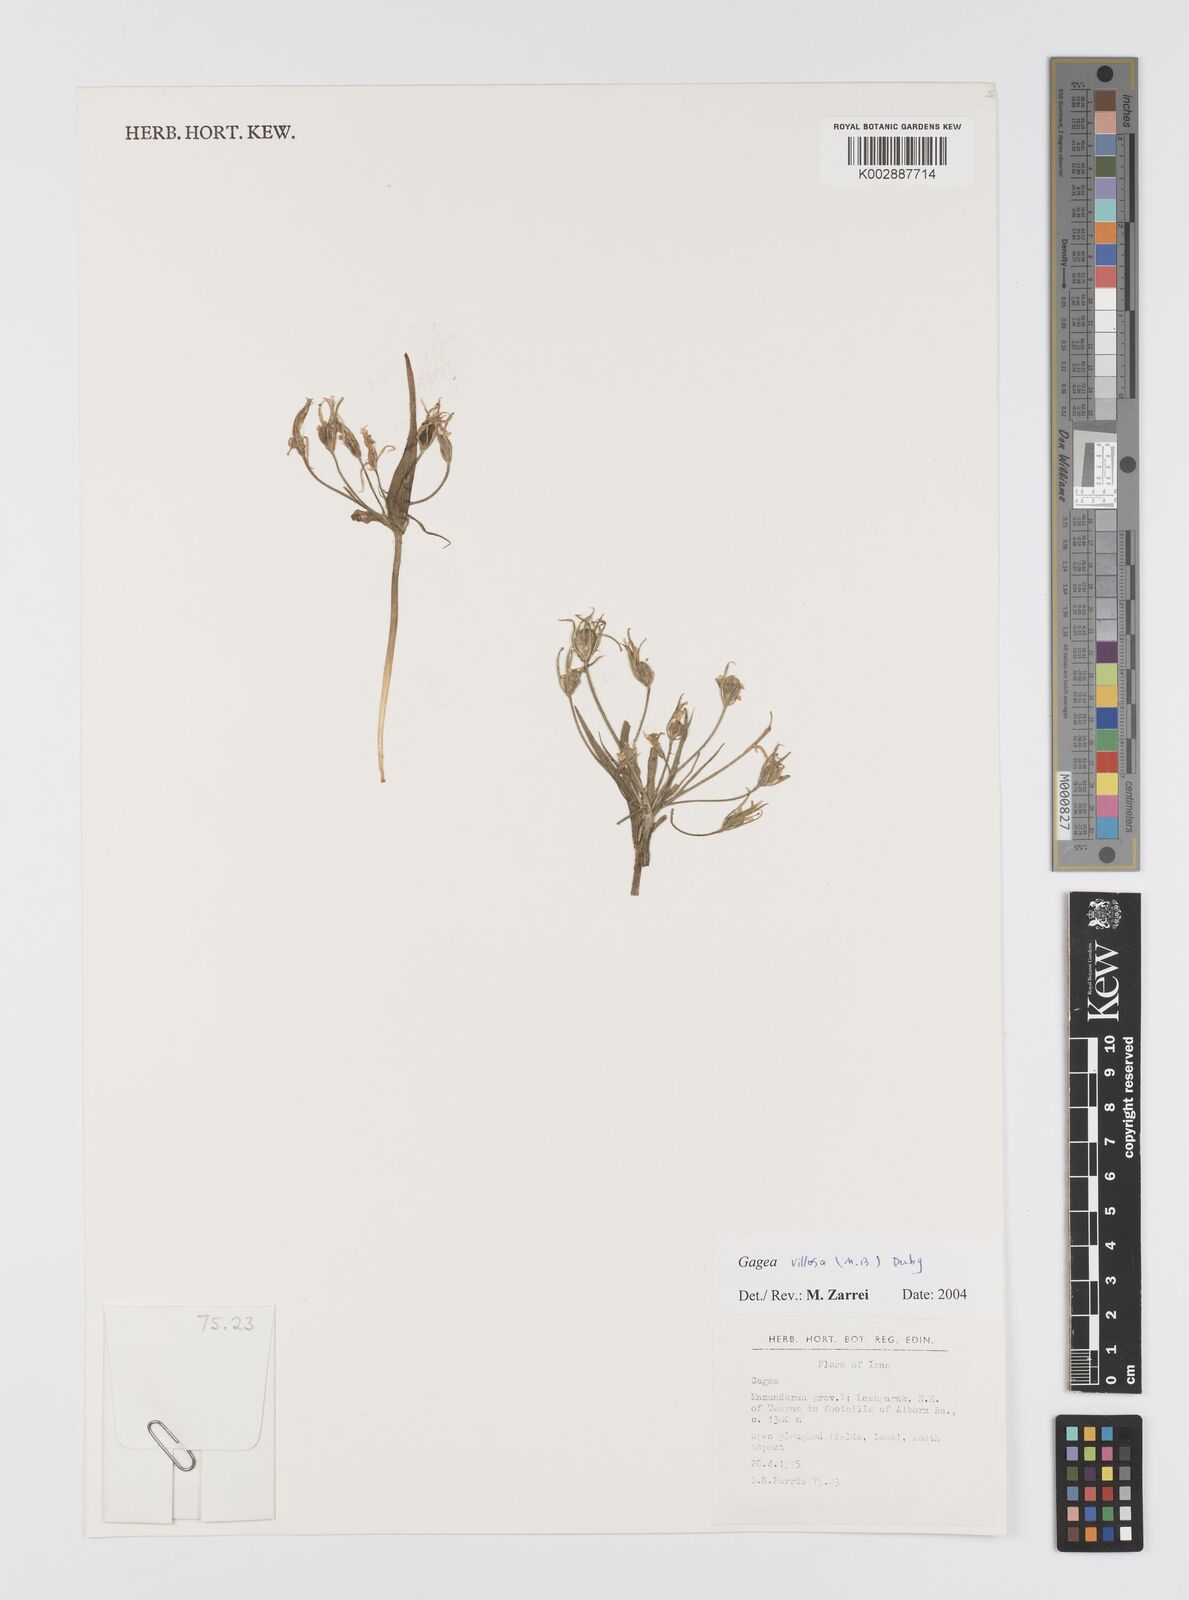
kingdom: Plantae
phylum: Tracheophyta
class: Liliopsida
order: Liliales
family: Liliaceae
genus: Gagea
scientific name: Gagea villosa
